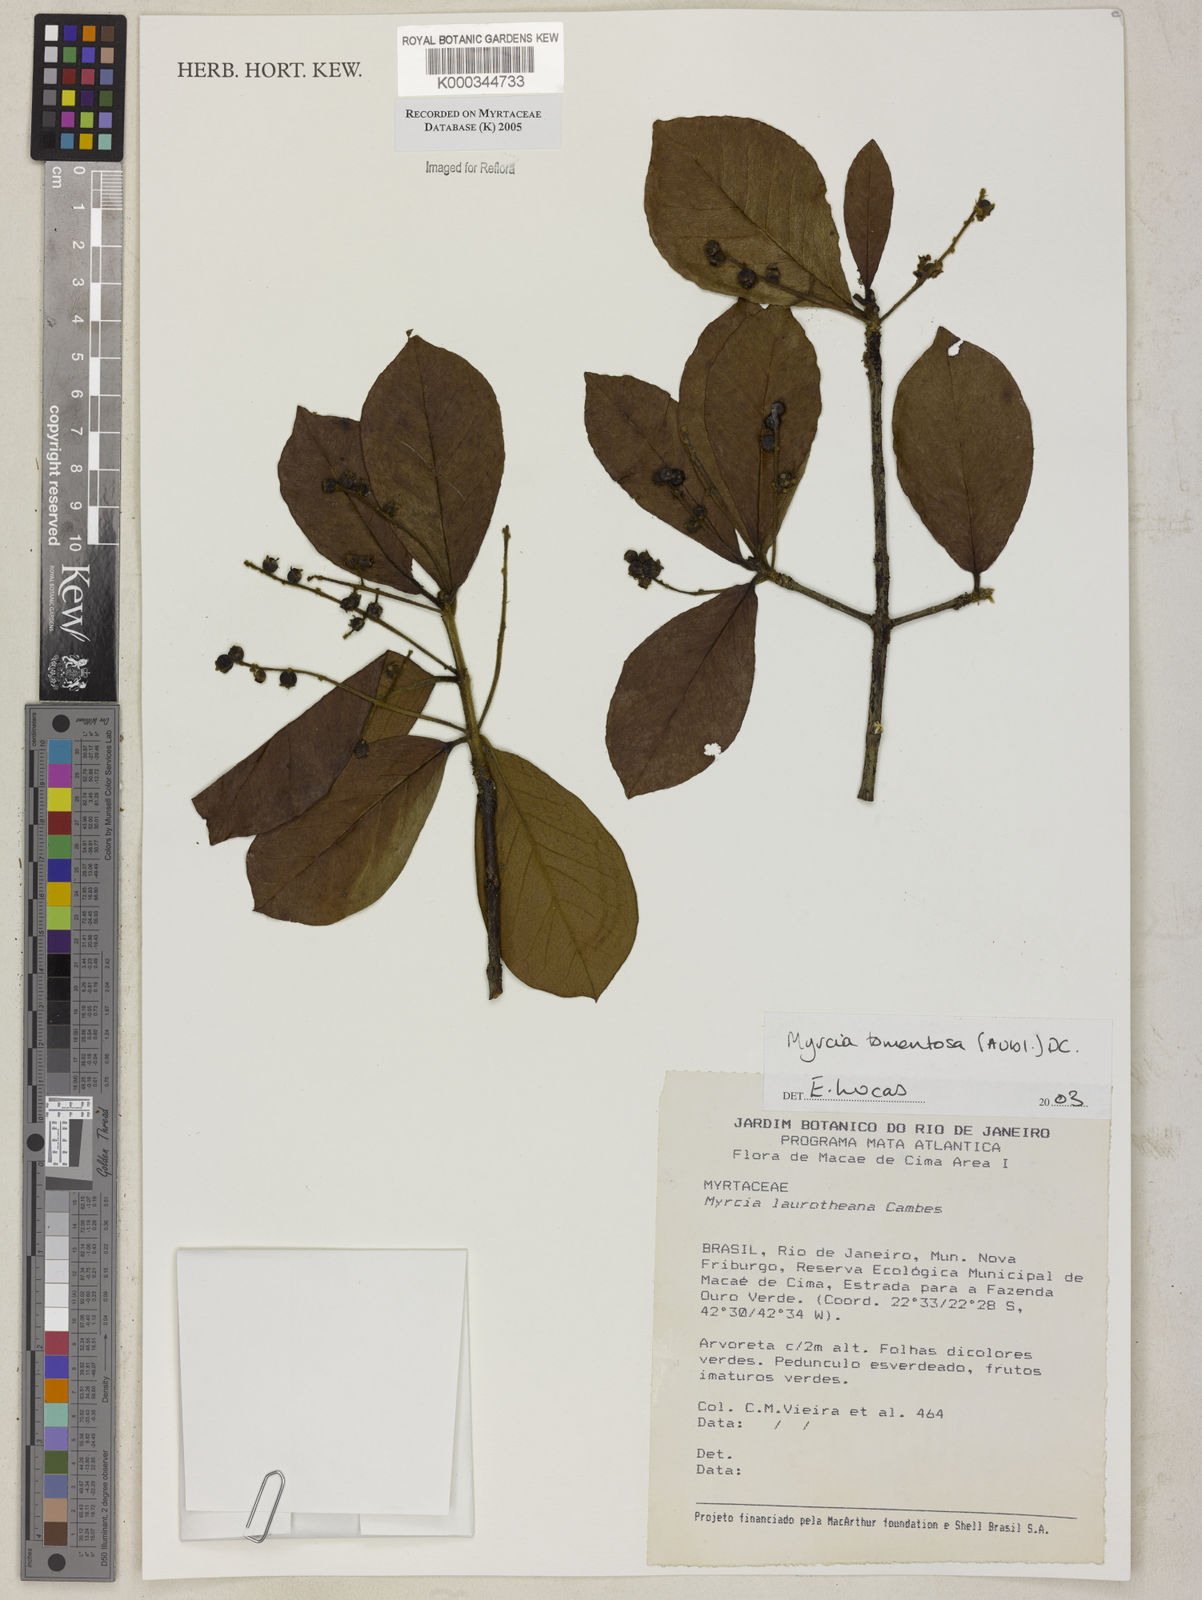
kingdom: Plantae
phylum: Tracheophyta
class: Magnoliopsida
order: Myrtales
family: Myrtaceae
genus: Myrcia
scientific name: Myrcia tomentosa
